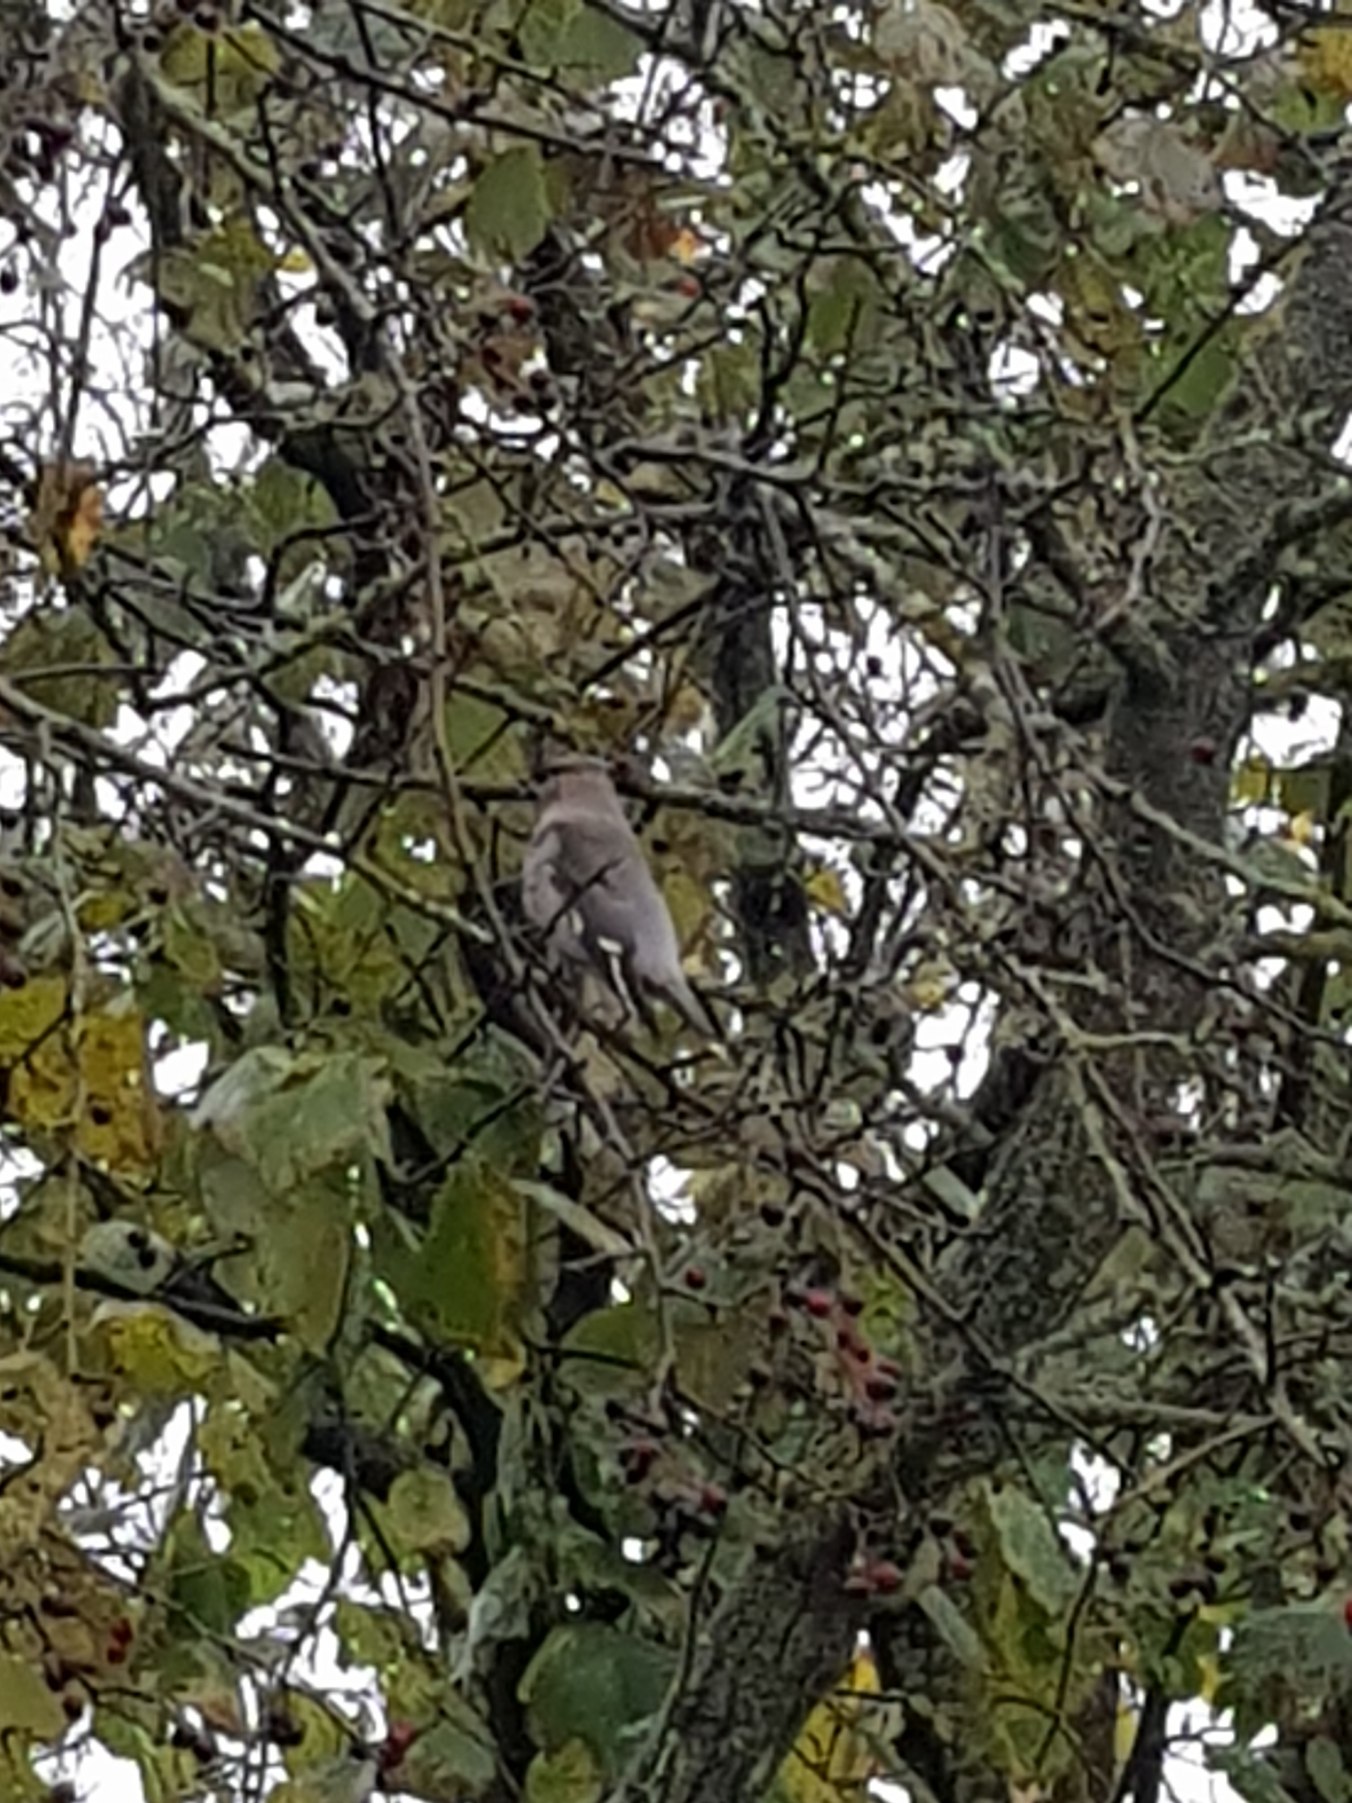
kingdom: Animalia
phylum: Chordata
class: Aves
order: Passeriformes
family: Bombycillidae
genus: Bombycilla
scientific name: Bombycilla garrulus
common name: Silkehale
